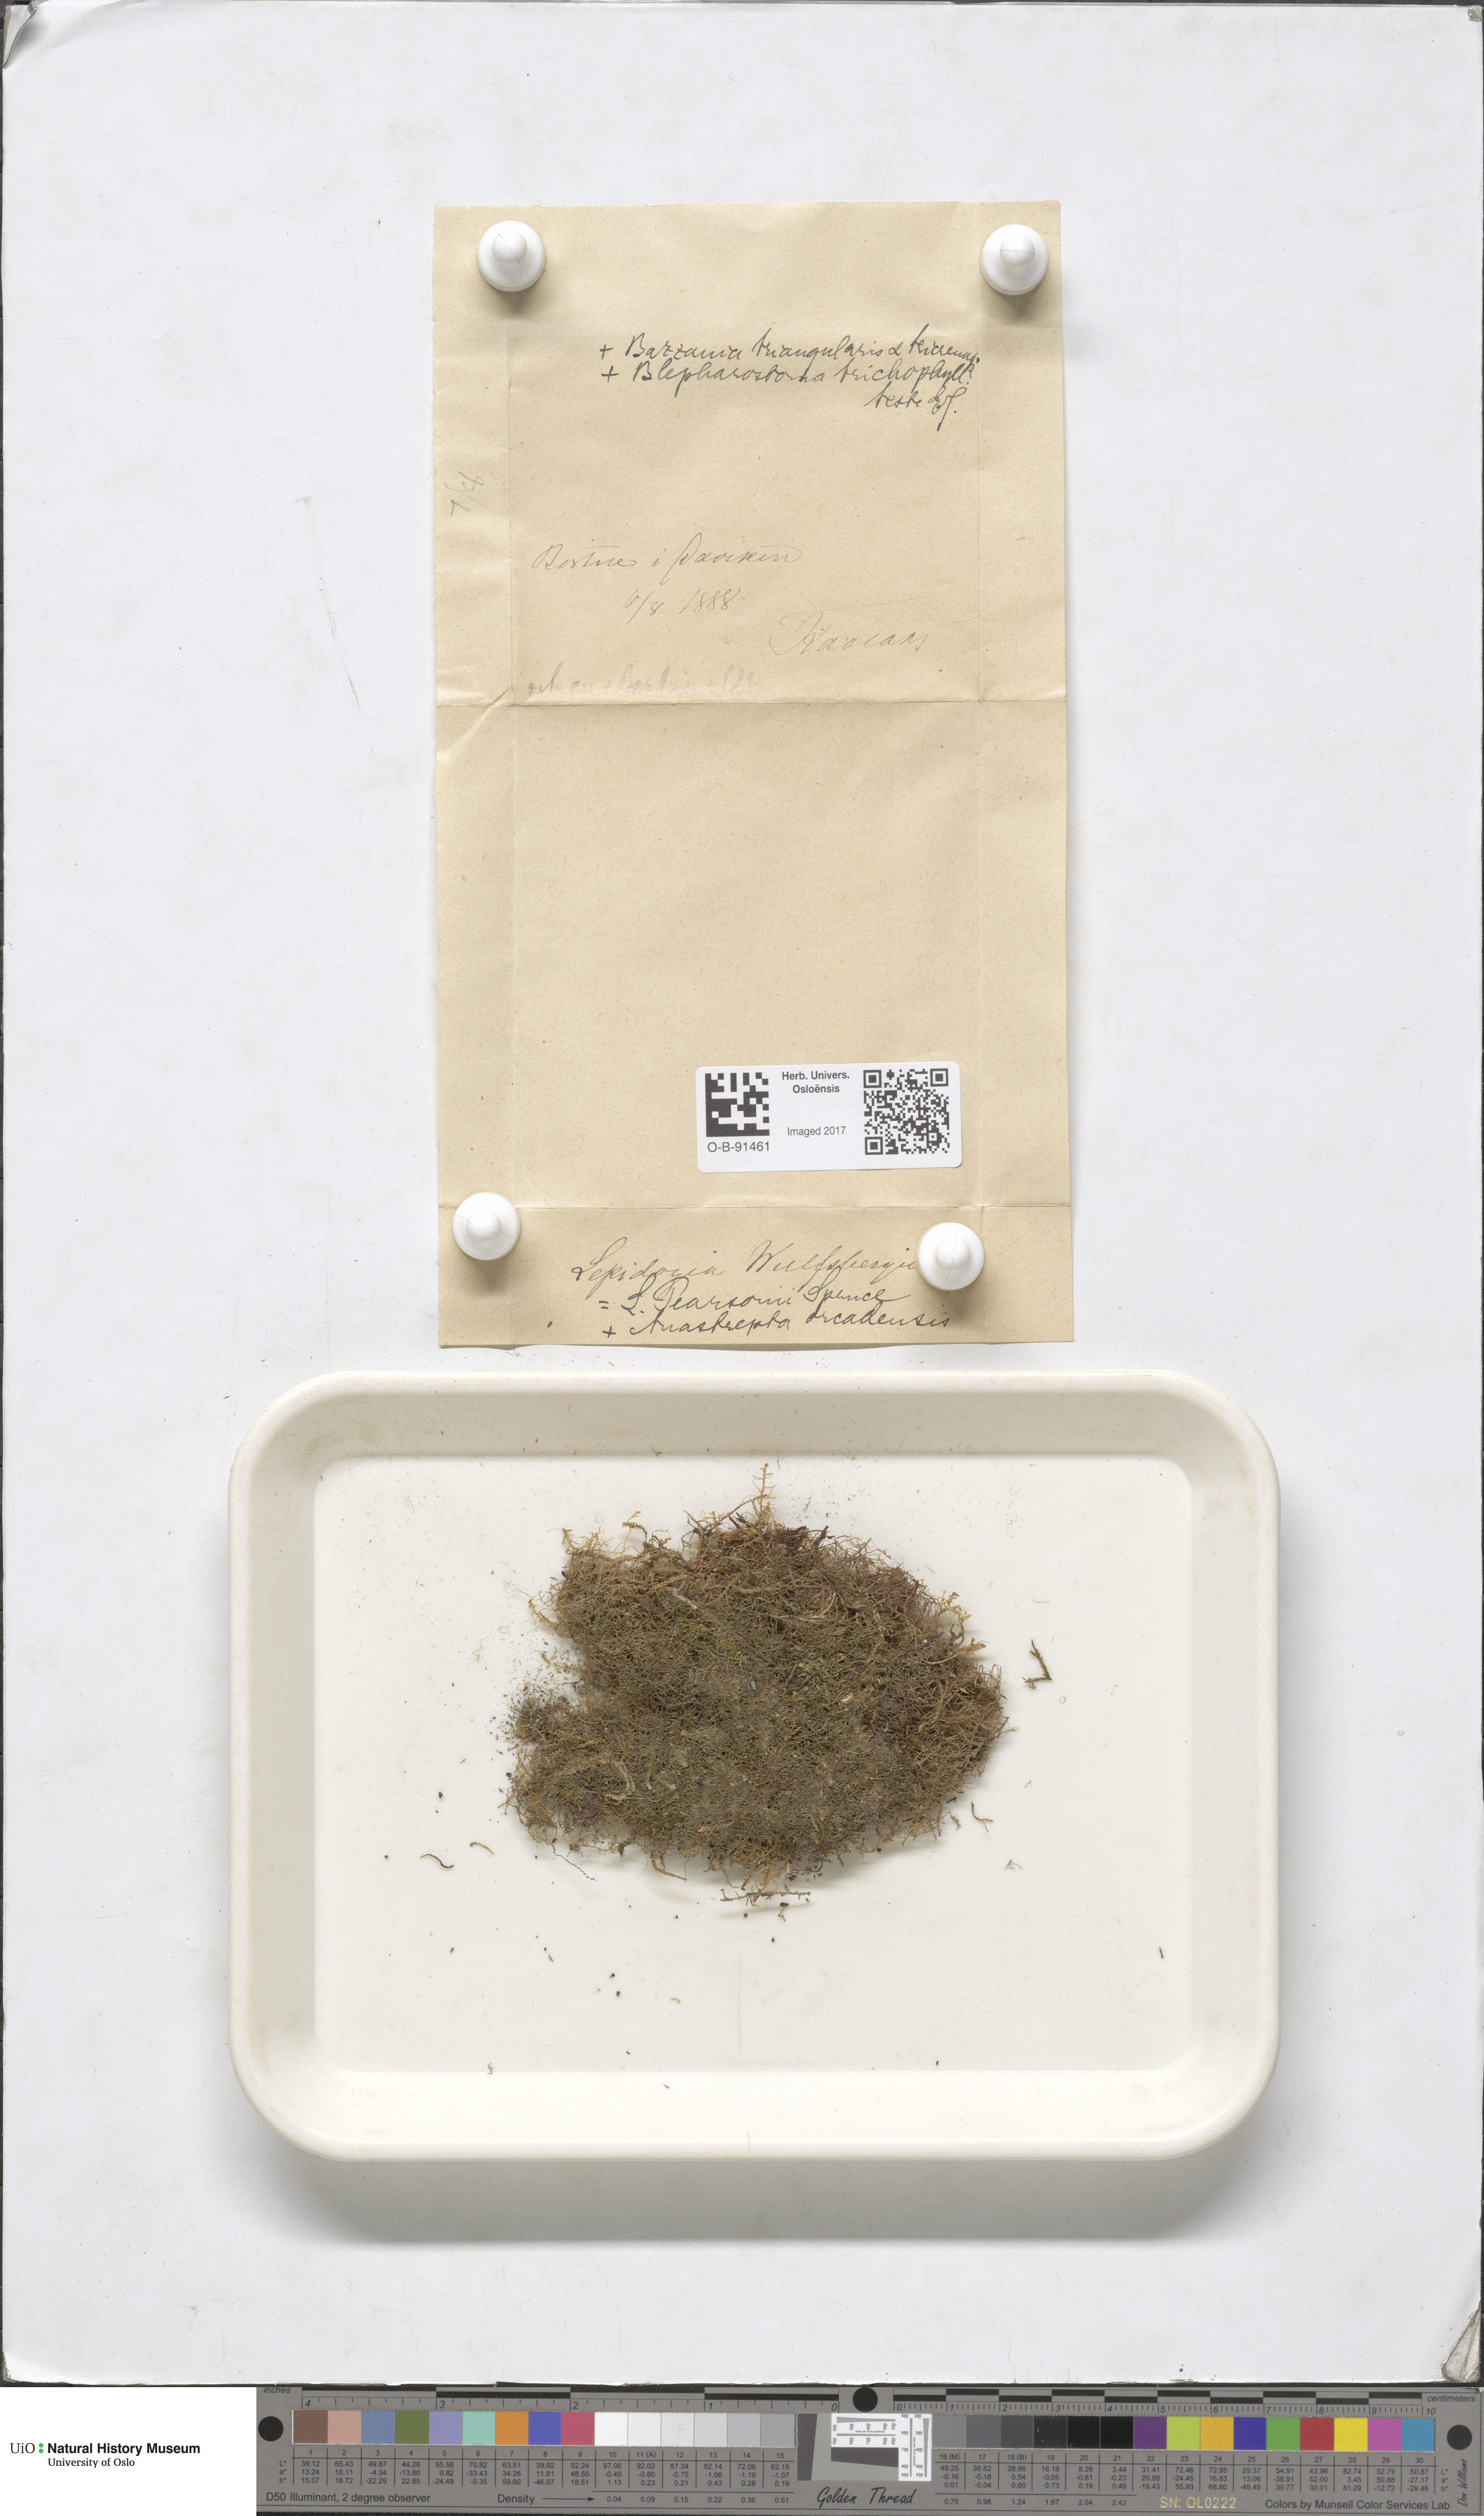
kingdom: Plantae
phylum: Marchantiophyta
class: Jungermanniopsida
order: Jungermanniales
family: Lepidoziaceae
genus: Lepidozia
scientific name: Lepidozia pearsonii
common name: Pearson's fingerwort
